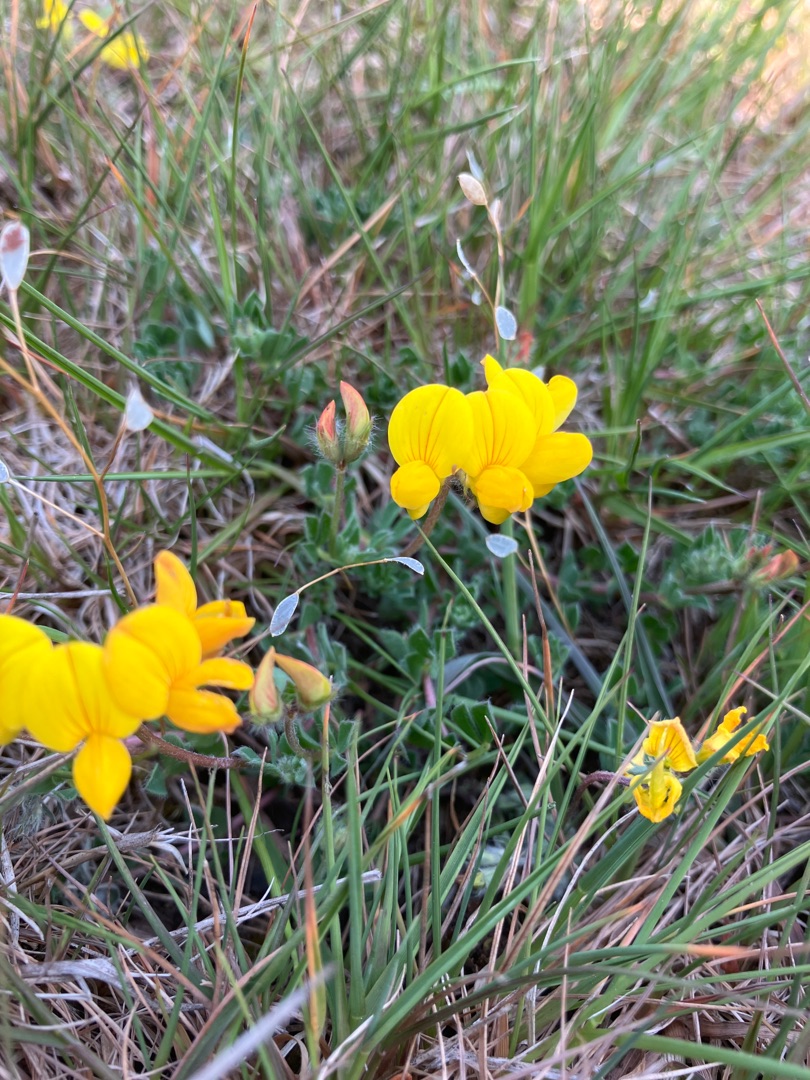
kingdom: Plantae
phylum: Tracheophyta
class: Magnoliopsida
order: Fabales
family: Fabaceae
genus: Lotus
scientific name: Lotus corniculatus
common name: Almindelig kællingetand
